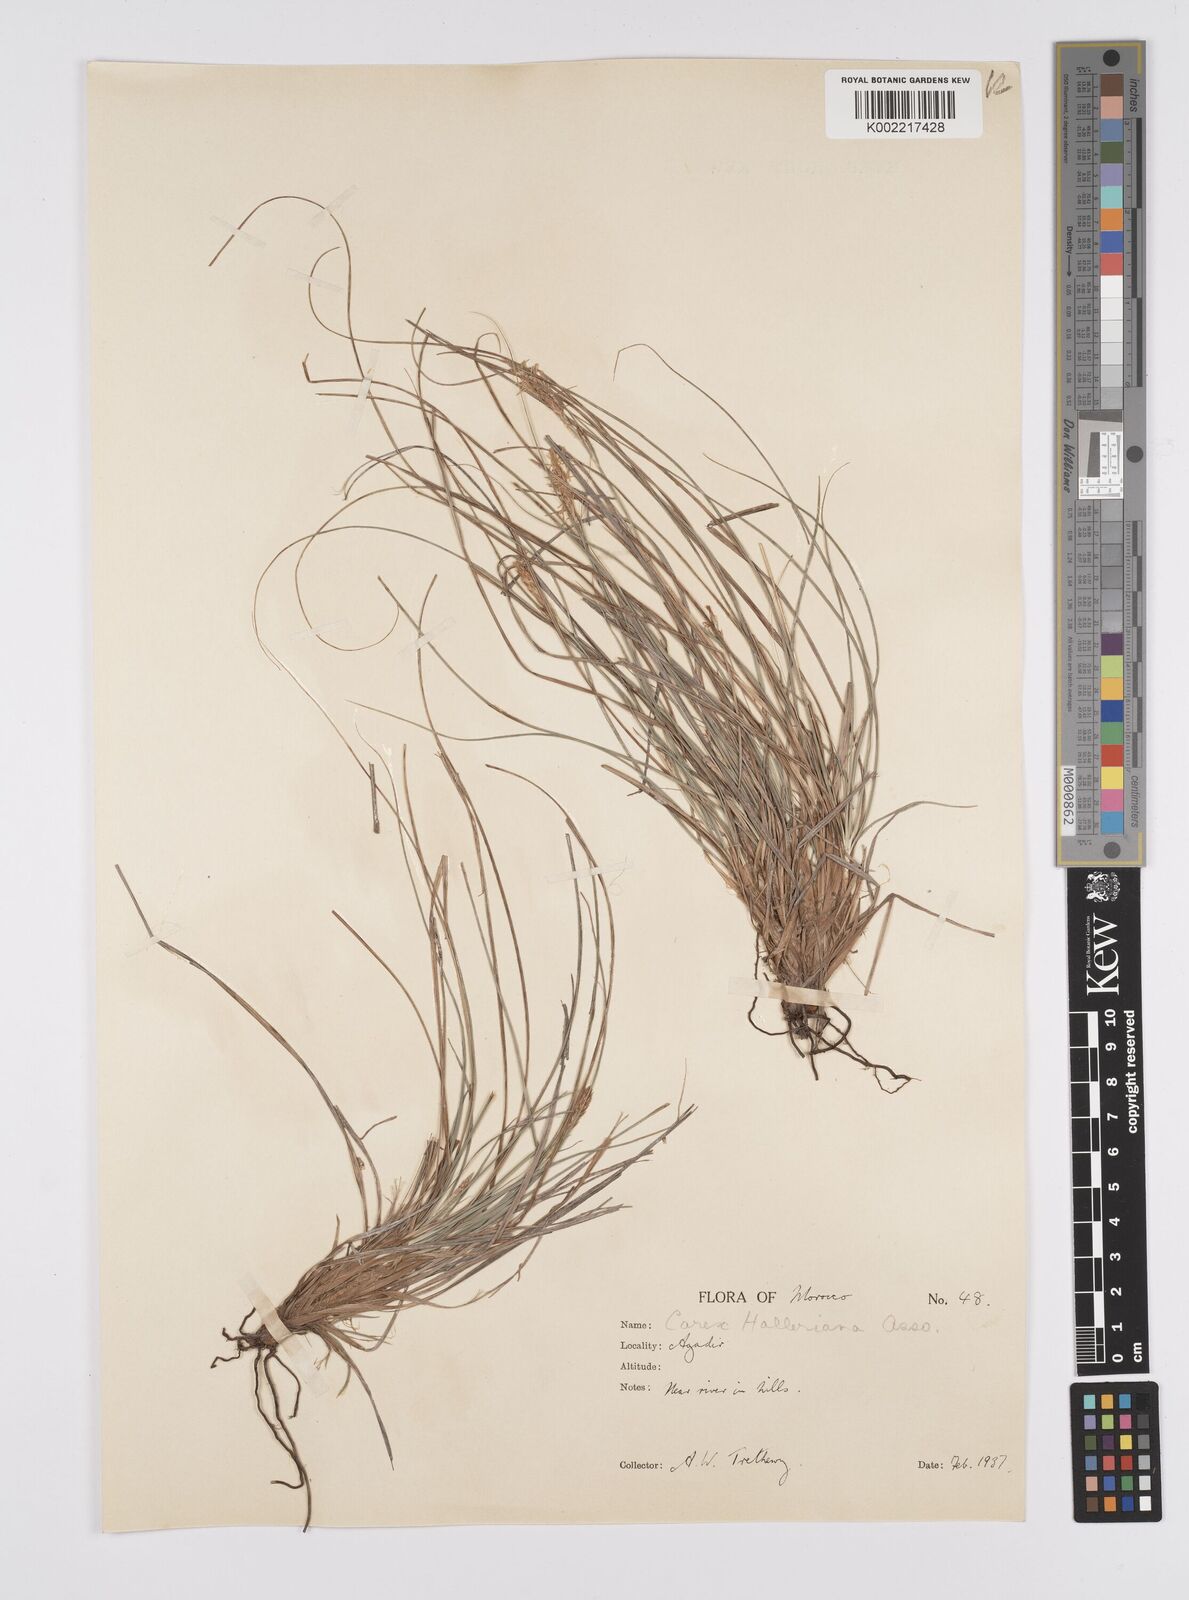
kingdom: Plantae
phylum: Tracheophyta
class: Liliopsida
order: Poales
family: Cyperaceae
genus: Carex
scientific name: Carex halleriana
